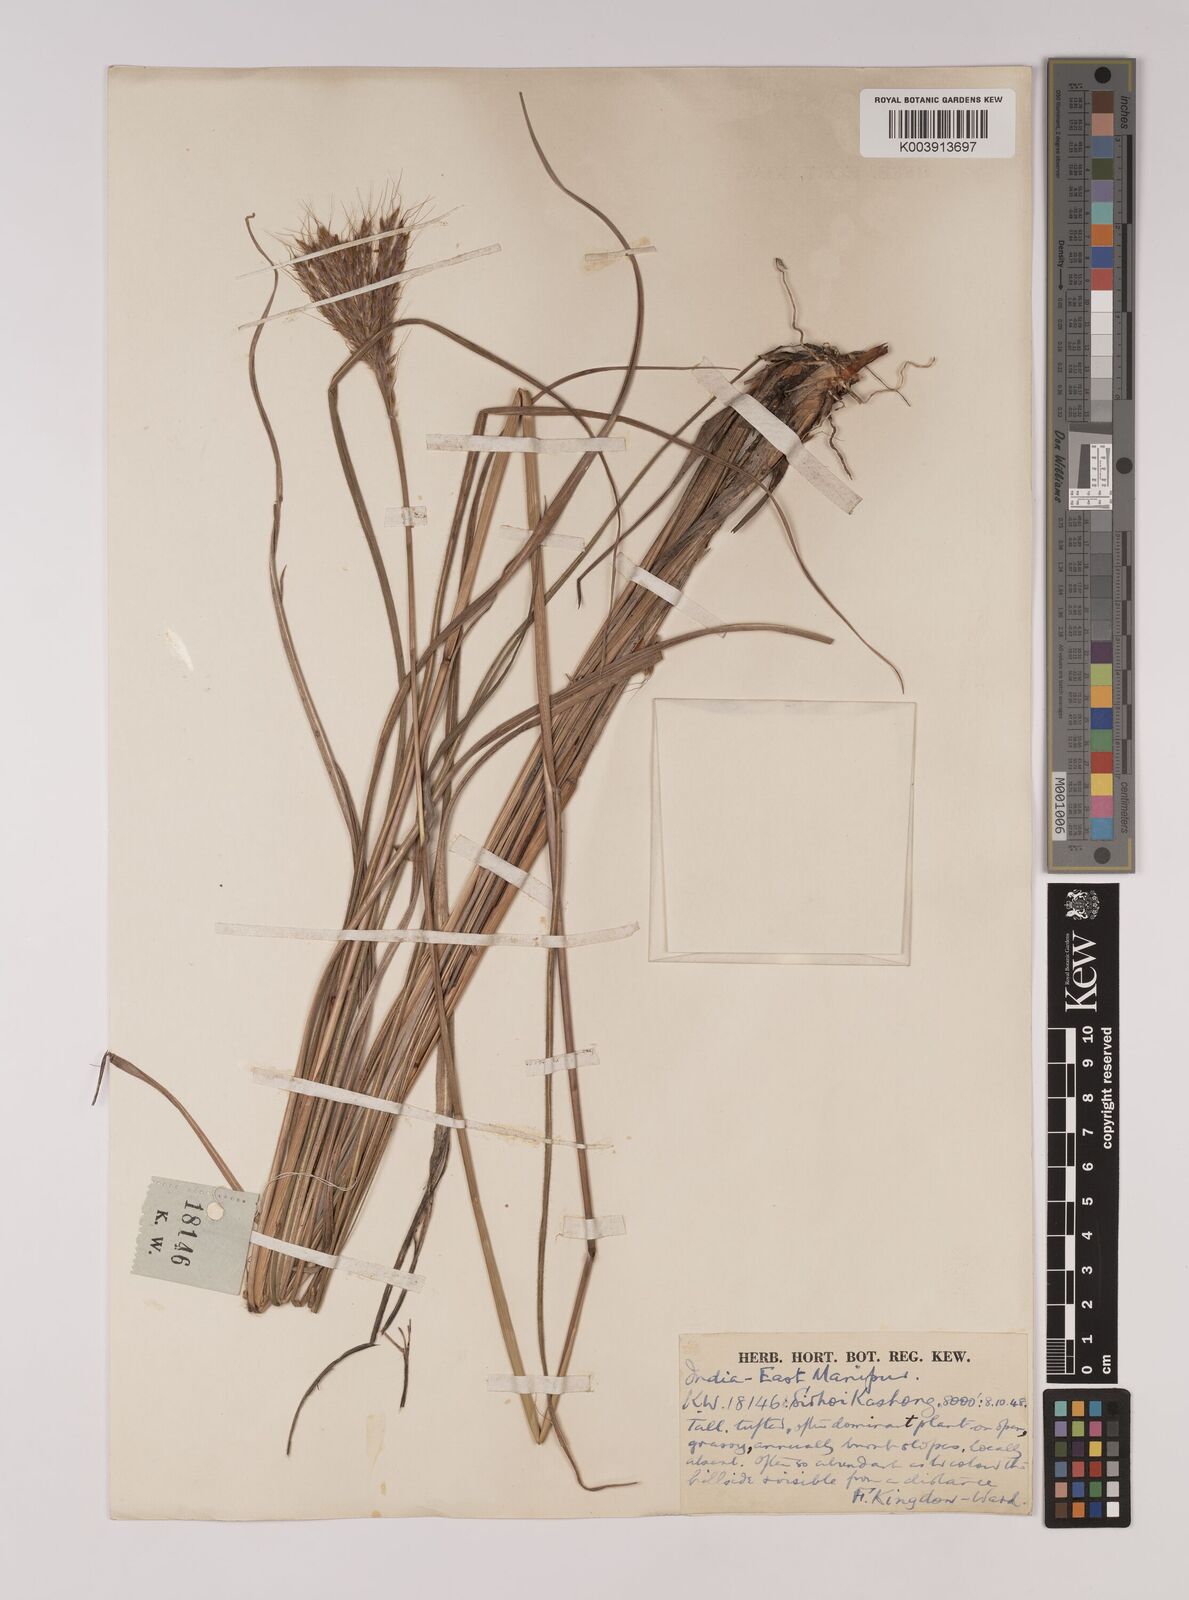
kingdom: Plantae
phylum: Tracheophyta
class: Liliopsida
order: Poales
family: Poaceae
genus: Pseudopogonatherum
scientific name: Pseudopogonatherum quadrinerve
